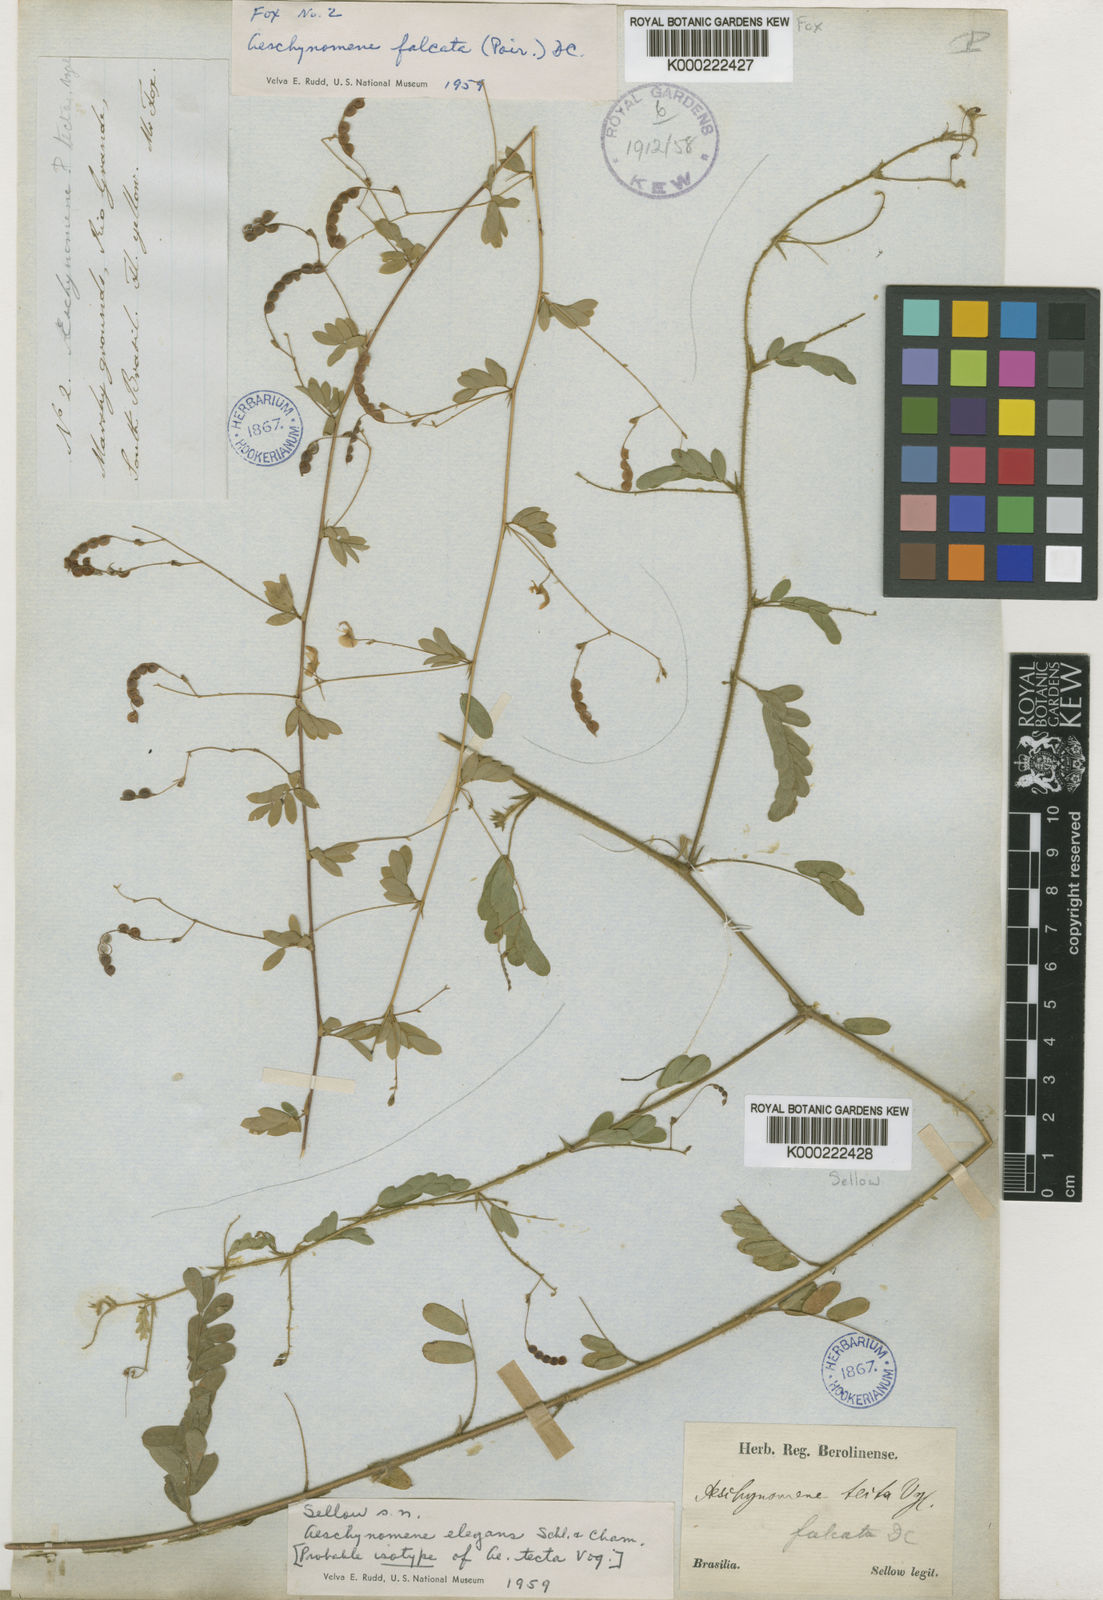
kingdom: Plantae
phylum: Tracheophyta
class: Magnoliopsida
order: Fabales
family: Fabaceae
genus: Ctenodon
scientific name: Ctenodon elegans
